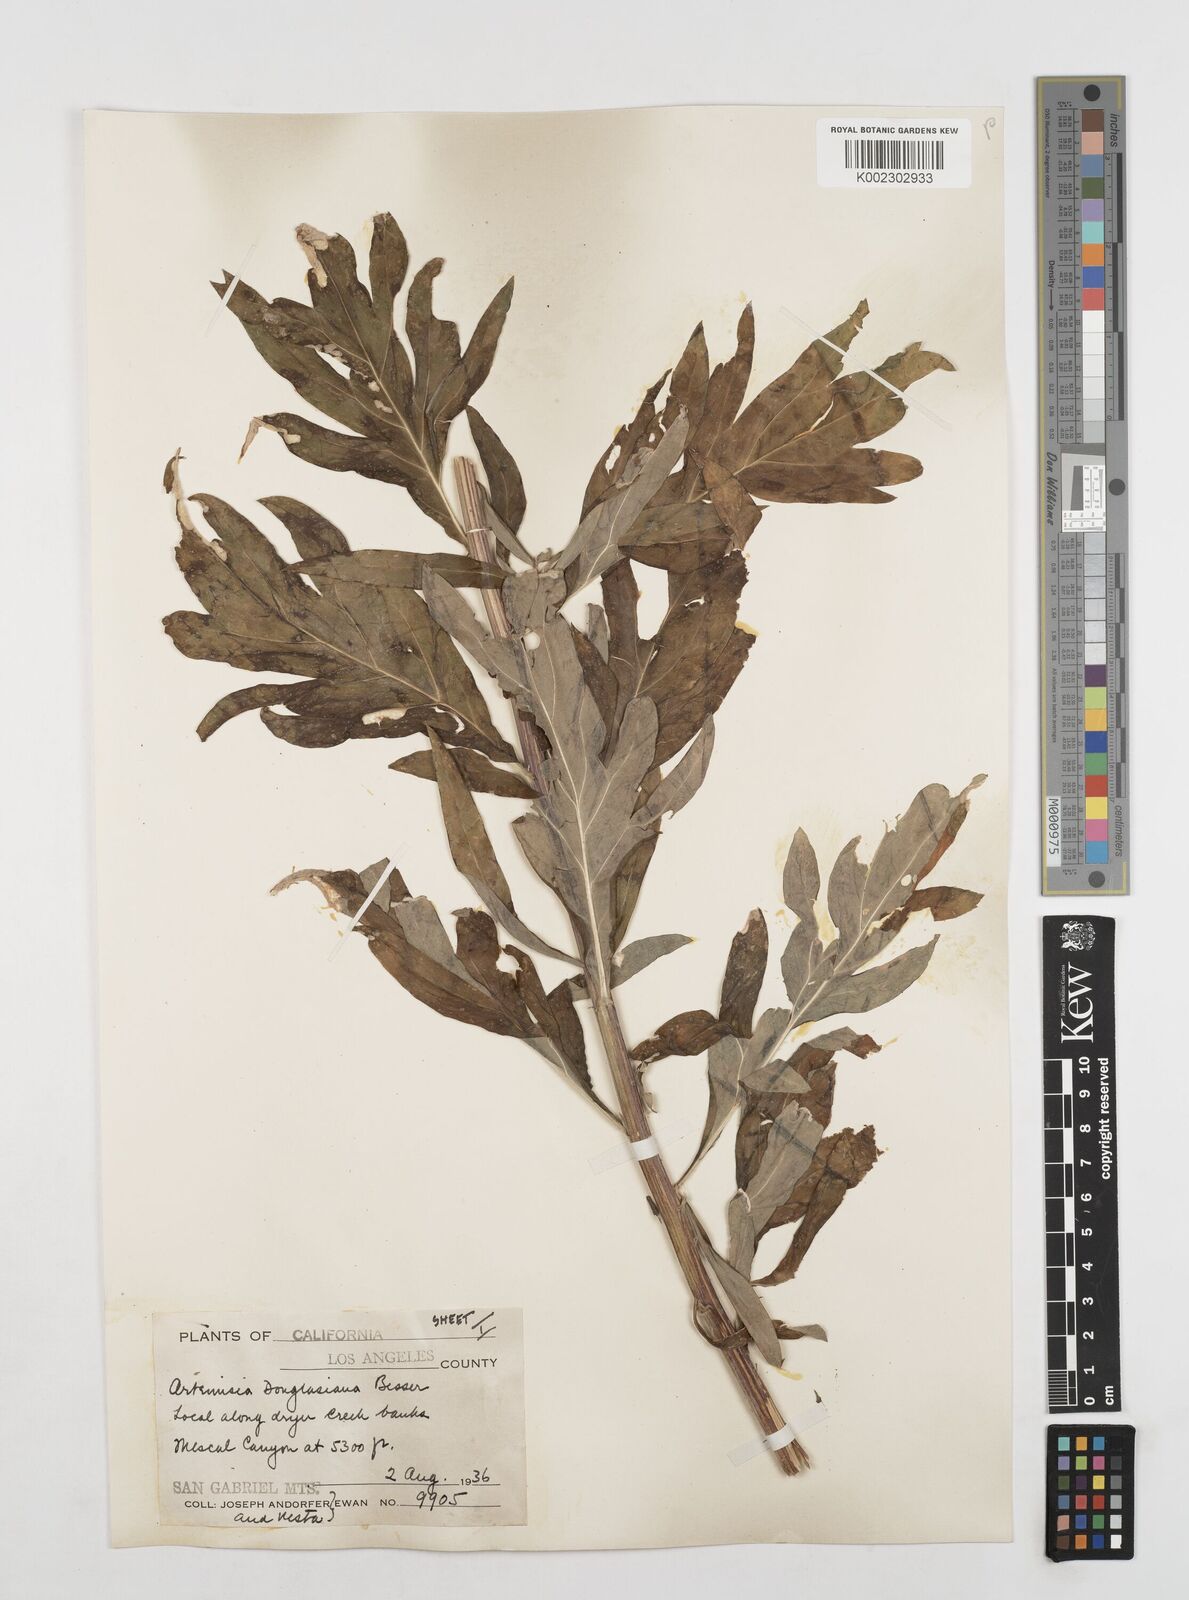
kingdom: Plantae
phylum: Tracheophyta
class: Magnoliopsida
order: Asterales
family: Asteraceae
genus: Artemisia
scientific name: Artemisia douglasiana
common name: Northwest mugwort
